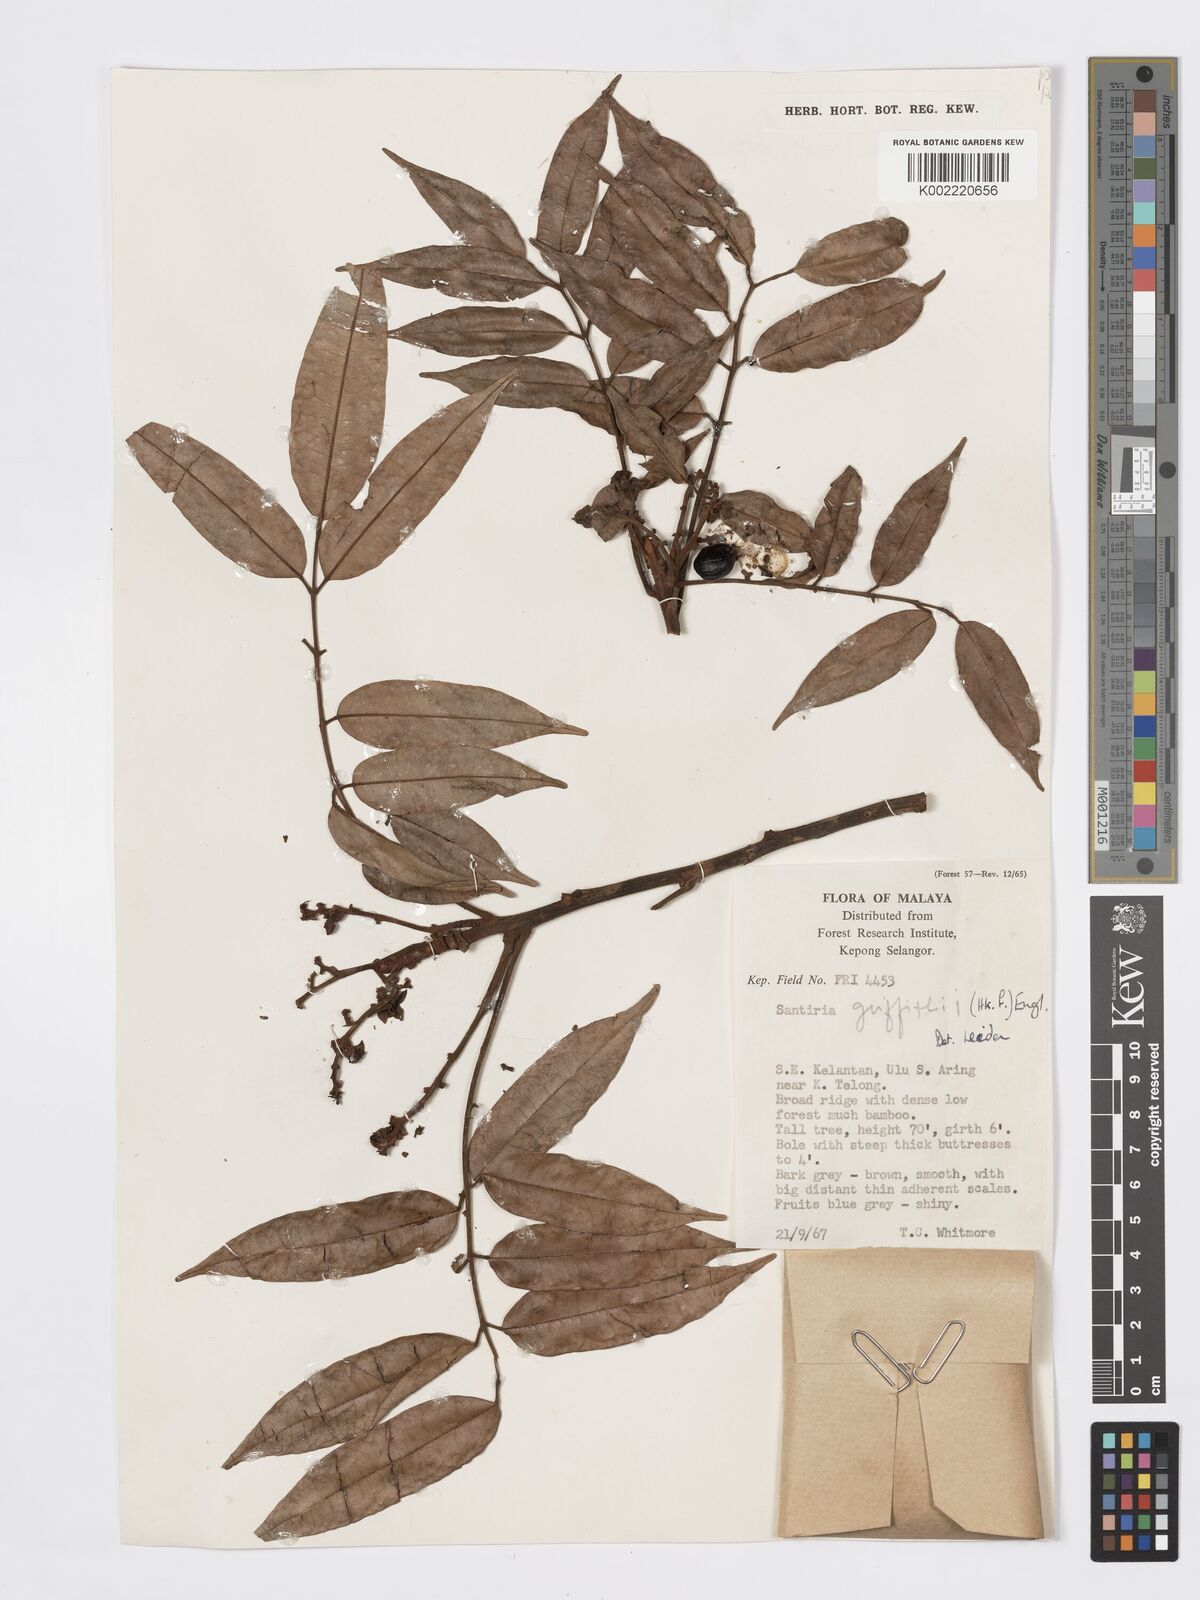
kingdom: Plantae
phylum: Tracheophyta
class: Magnoliopsida
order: Sapindales
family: Burseraceae
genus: Santiria
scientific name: Santiria griffithii
